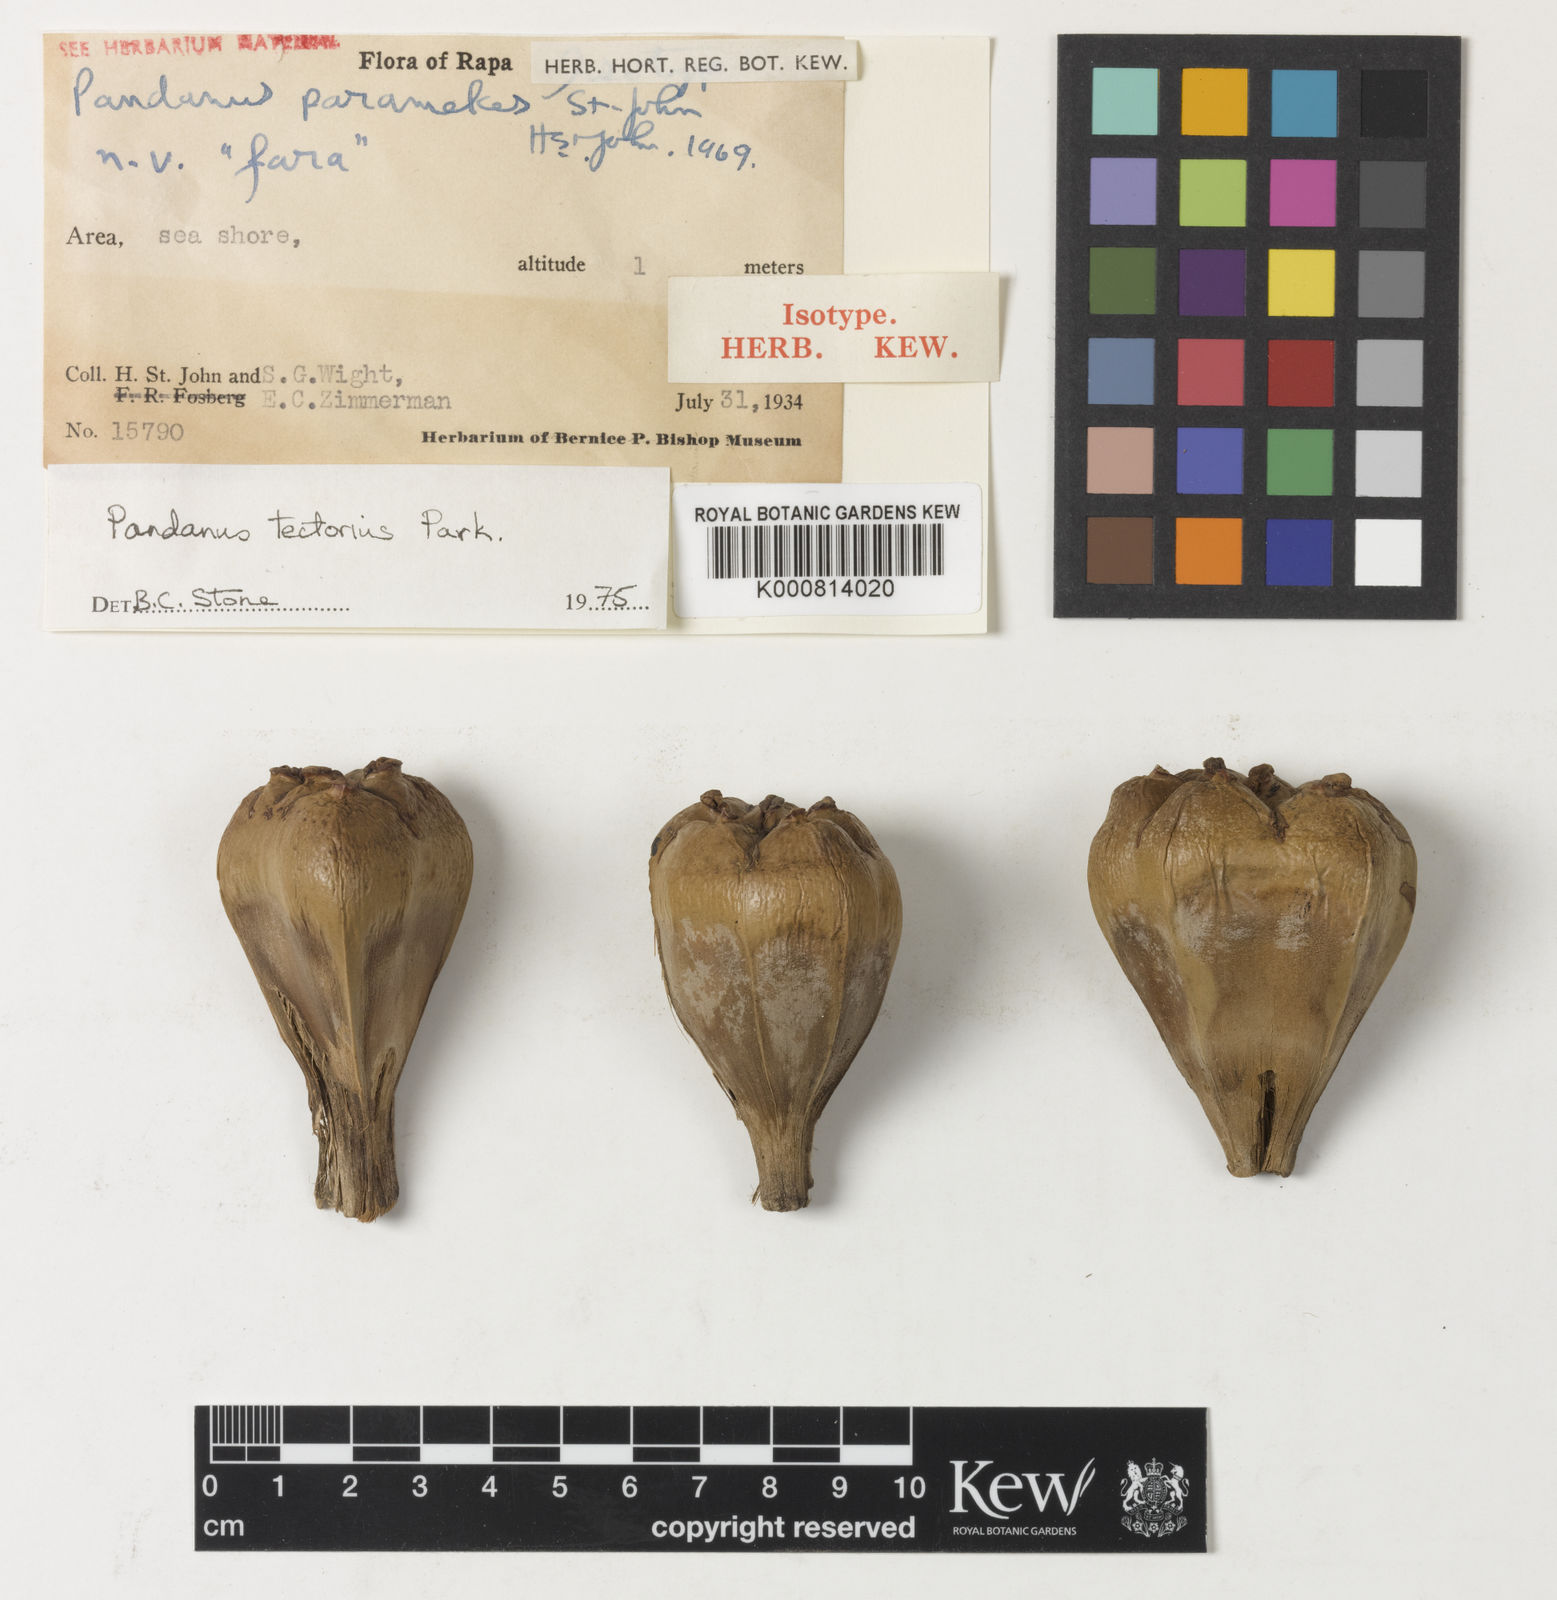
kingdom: Plantae
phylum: Tracheophyta
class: Liliopsida
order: Pandanales
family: Pandanaceae
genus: Pandanus
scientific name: Pandanus
